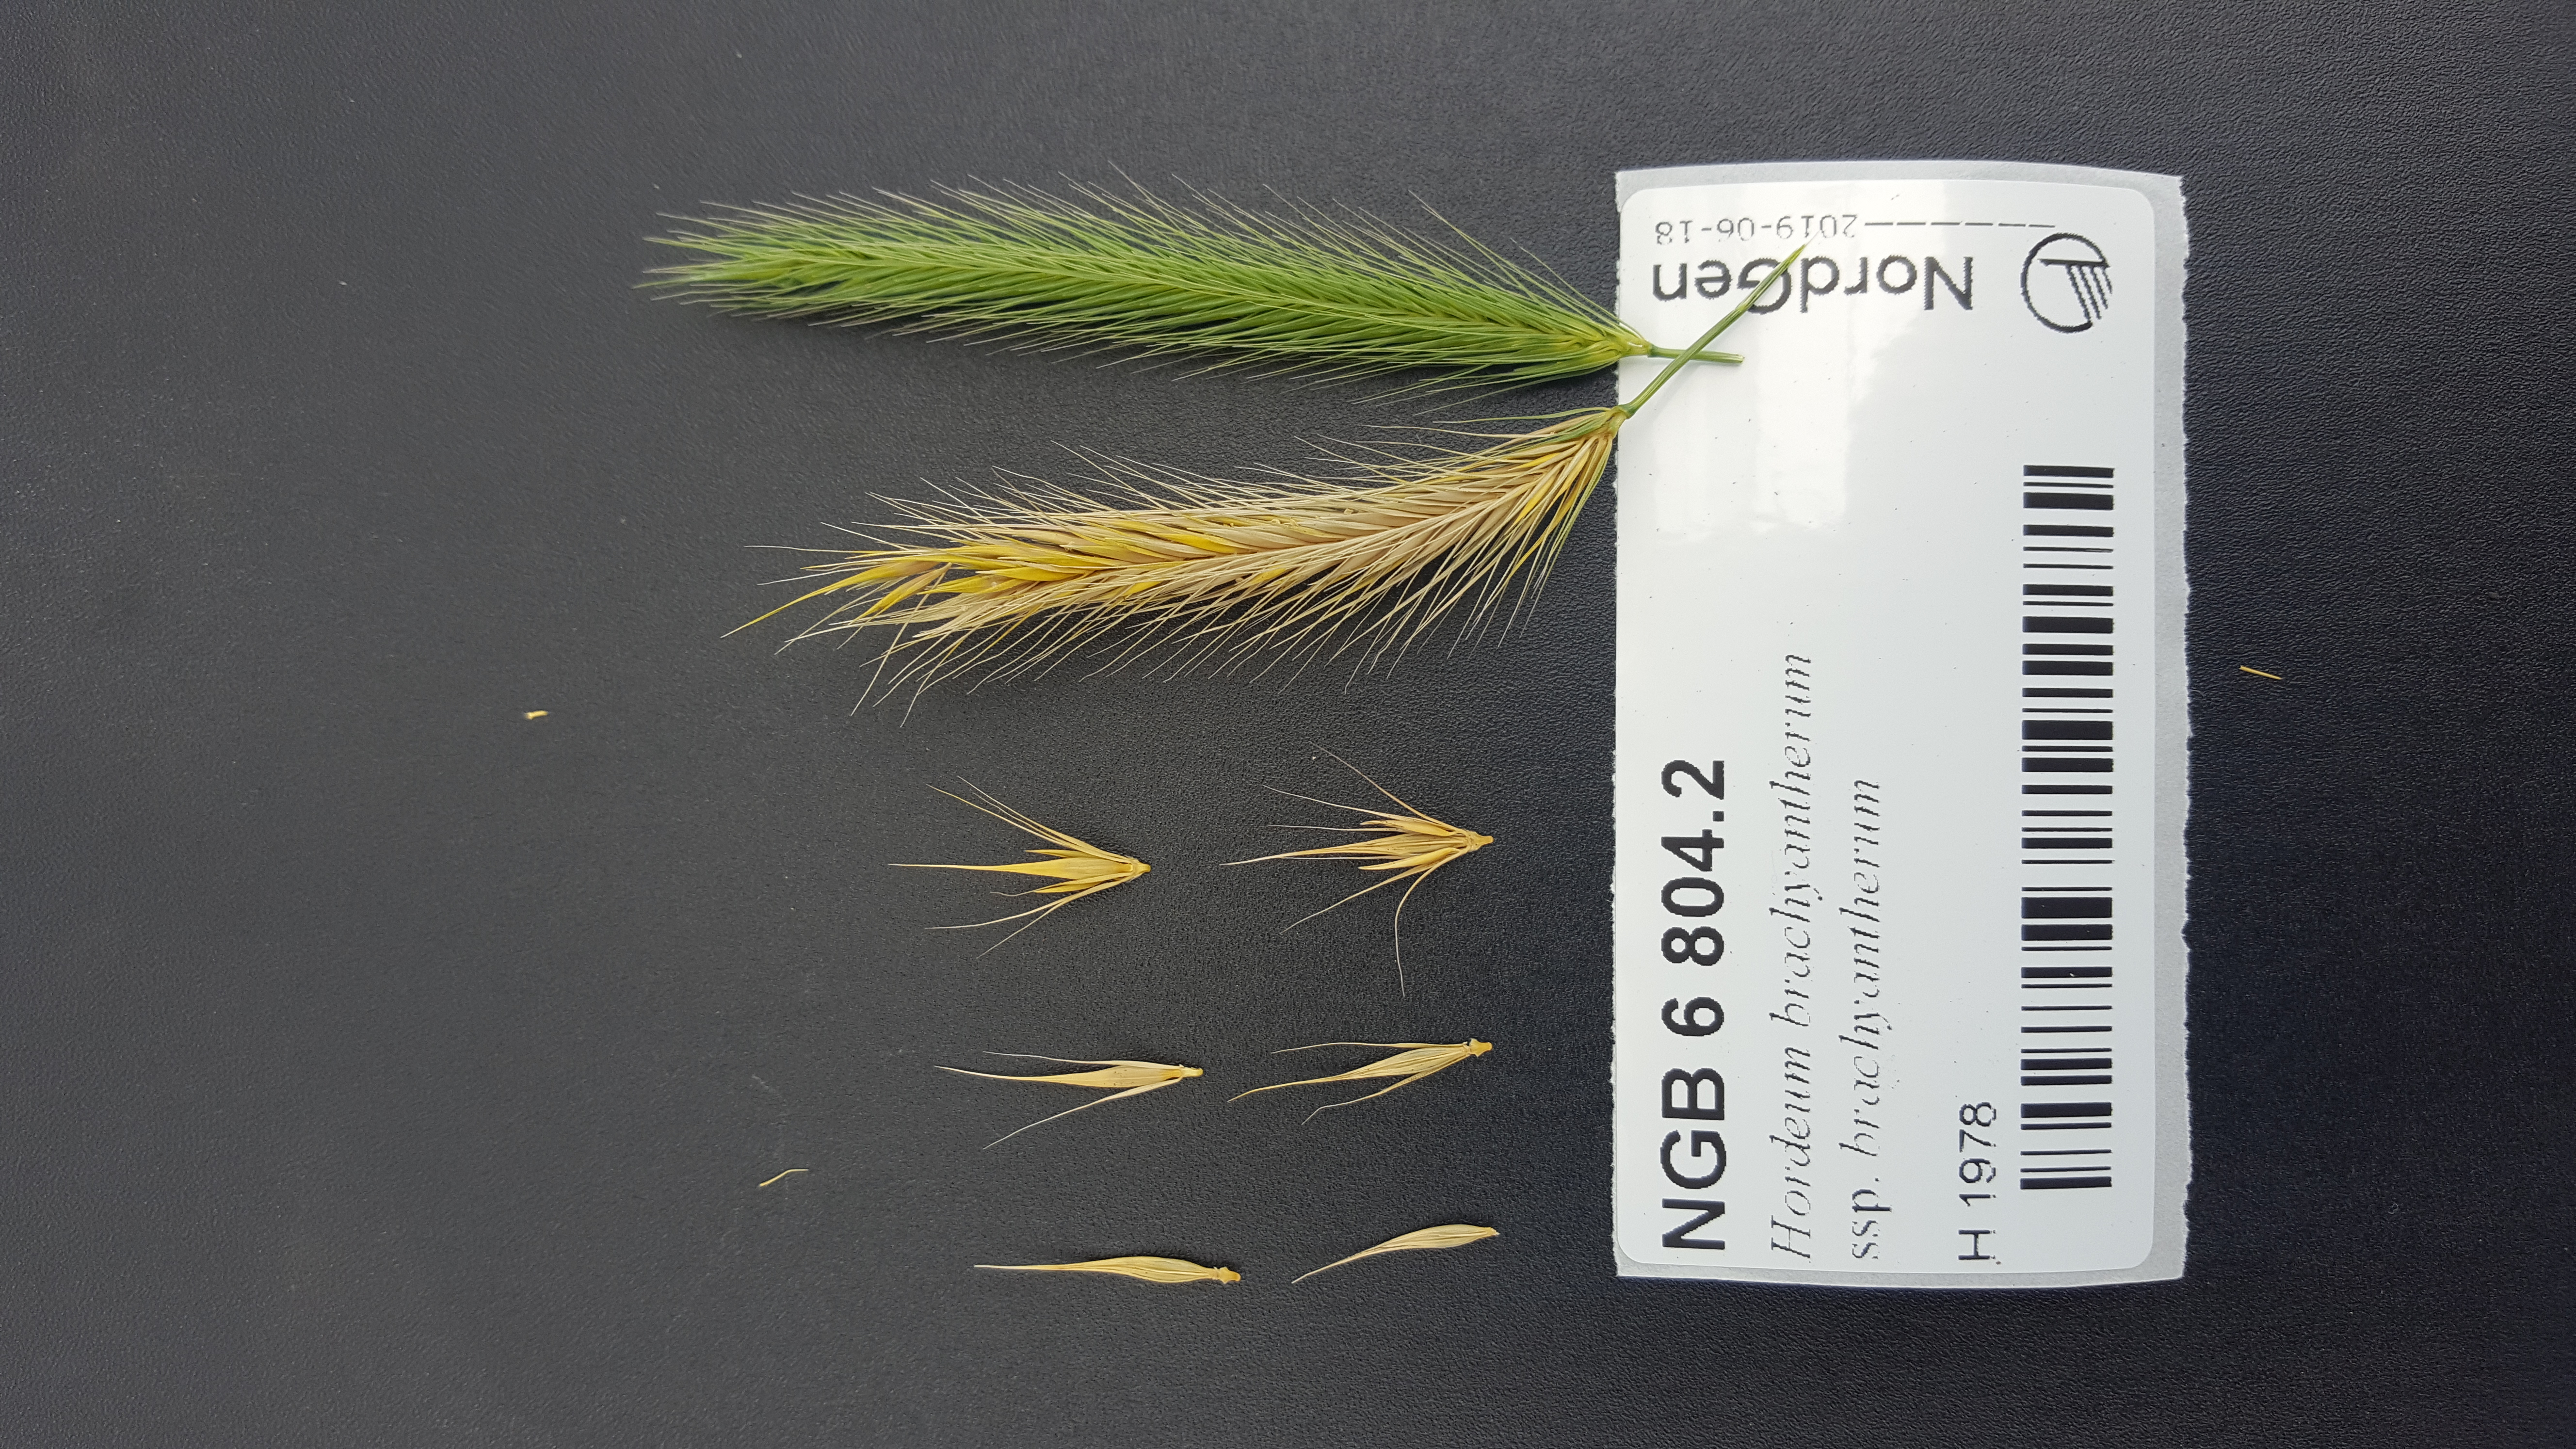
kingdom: Plantae
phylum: Tracheophyta
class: Liliopsida
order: Poales
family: Poaceae
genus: Hordeum
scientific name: Hordeum brachyantherum
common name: Meadow barley
